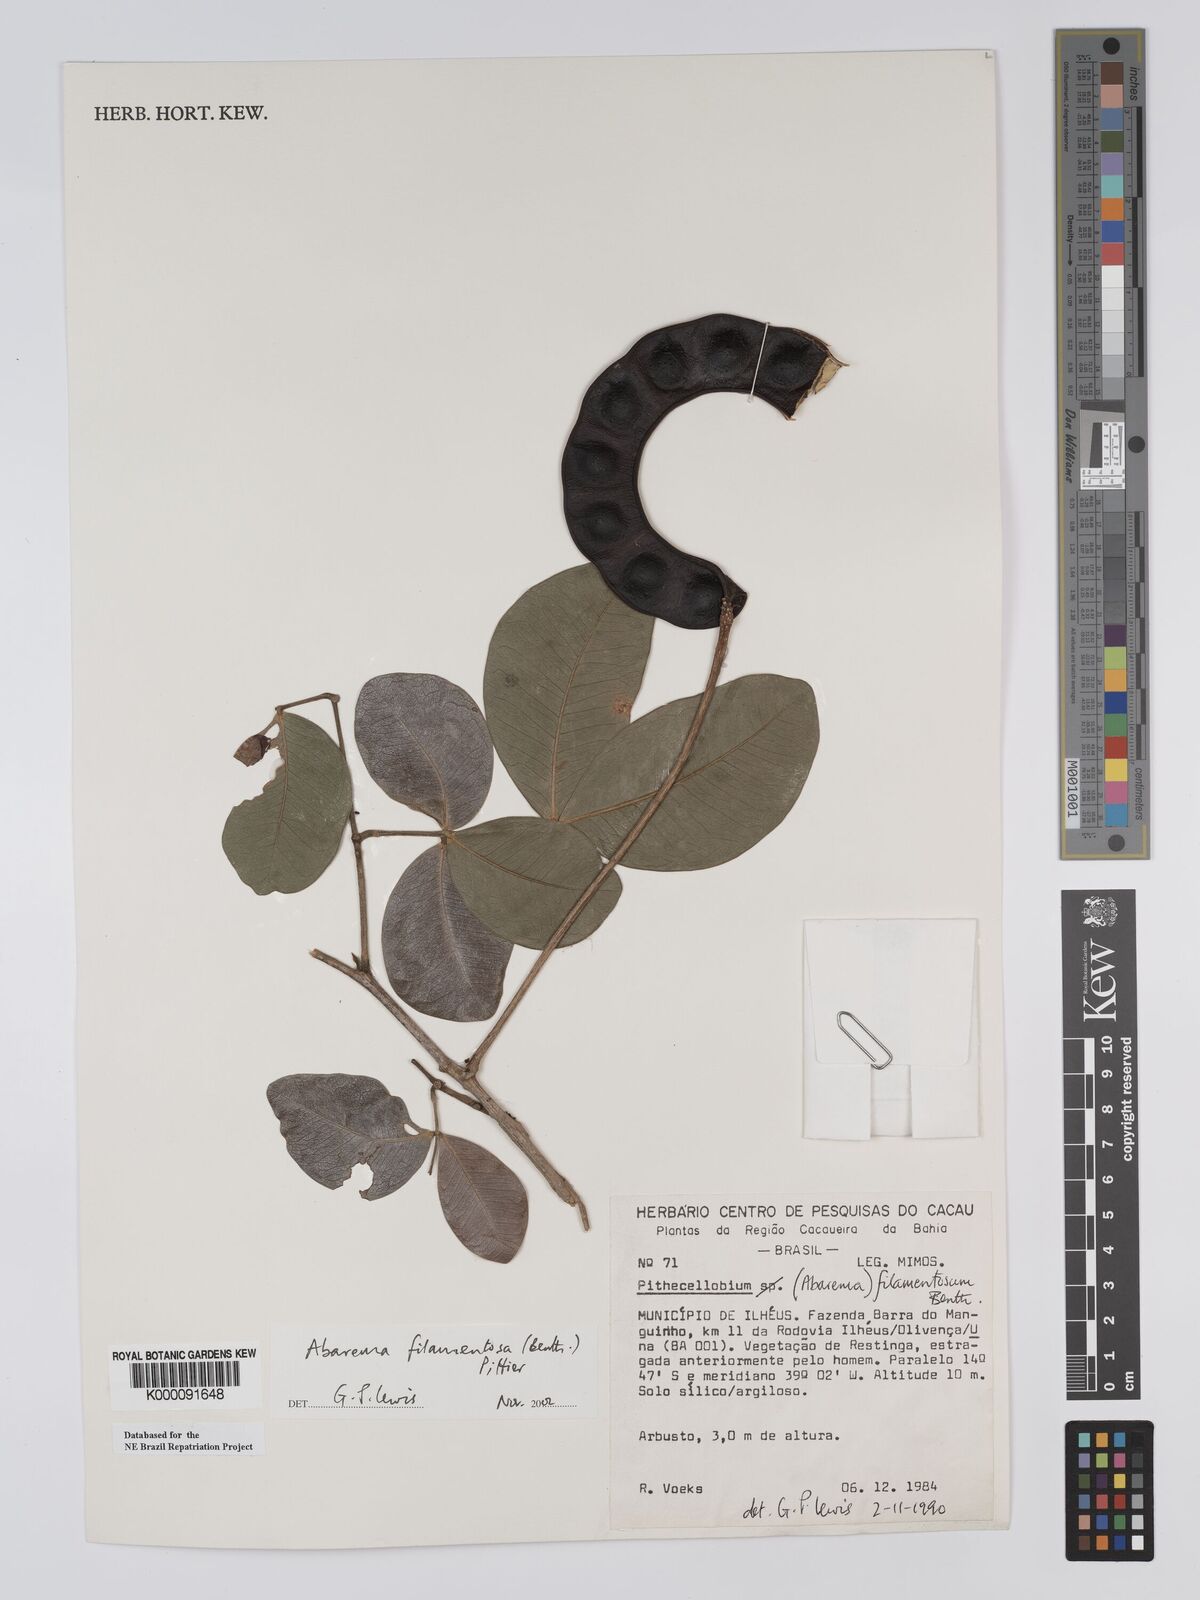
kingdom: Plantae
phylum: Tracheophyta
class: Magnoliopsida
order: Fabales
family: Fabaceae
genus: Jupunba
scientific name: Jupunba filamentosa
